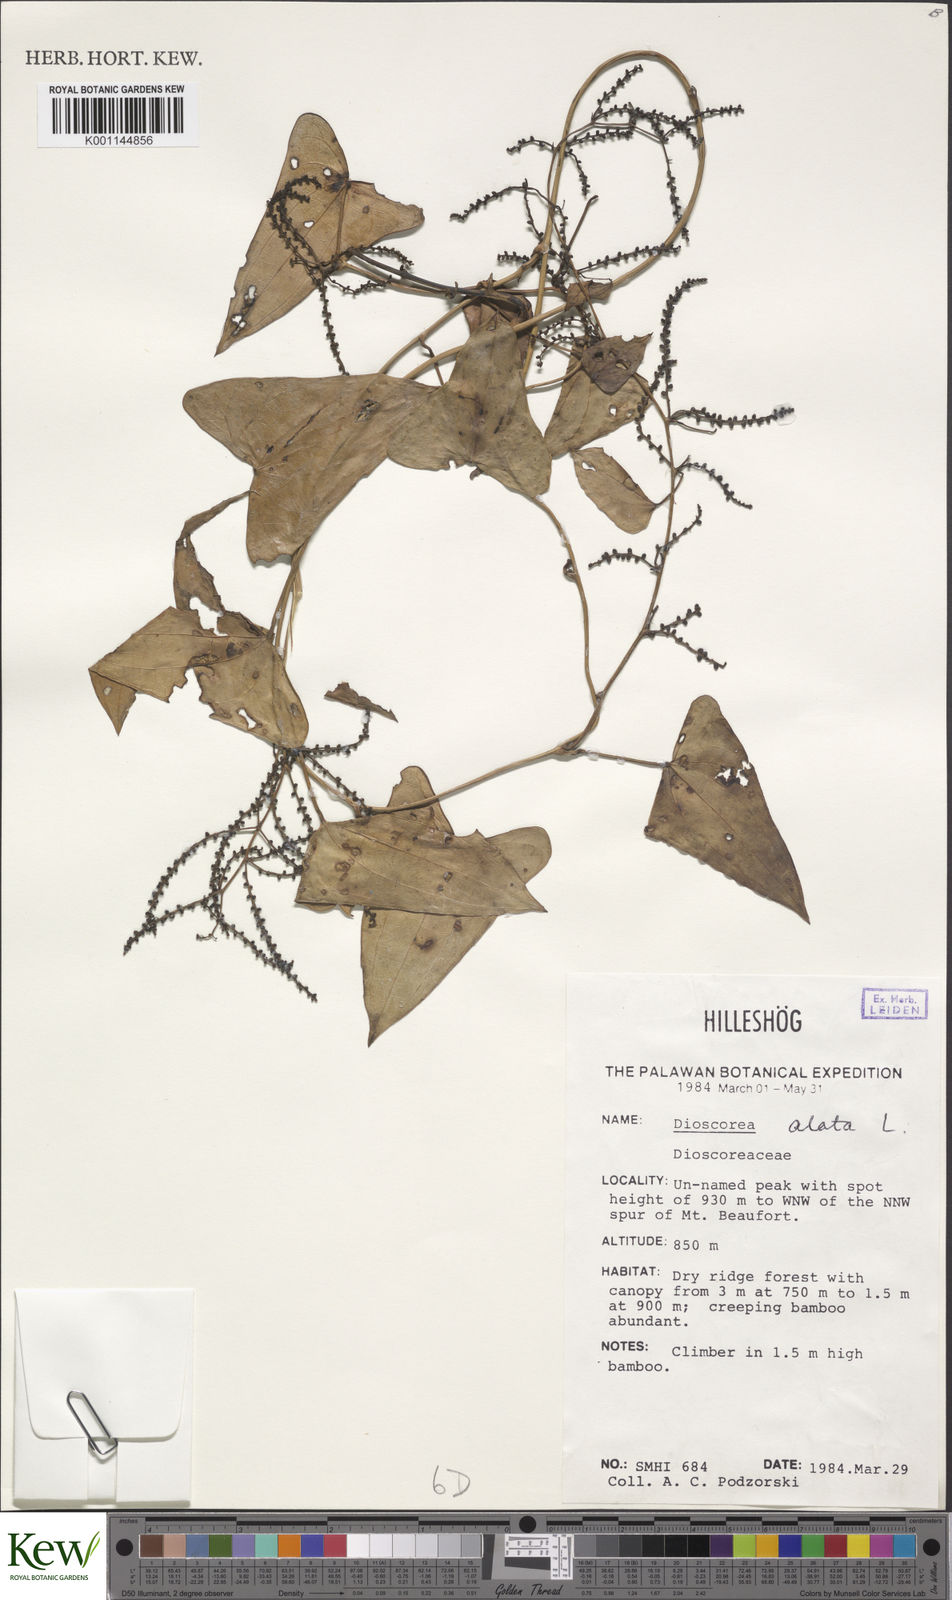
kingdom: Plantae
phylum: Tracheophyta
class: Liliopsida
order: Dioscoreales
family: Dioscoreaceae
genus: Dioscorea
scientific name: Dioscorea alata
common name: Water yam
